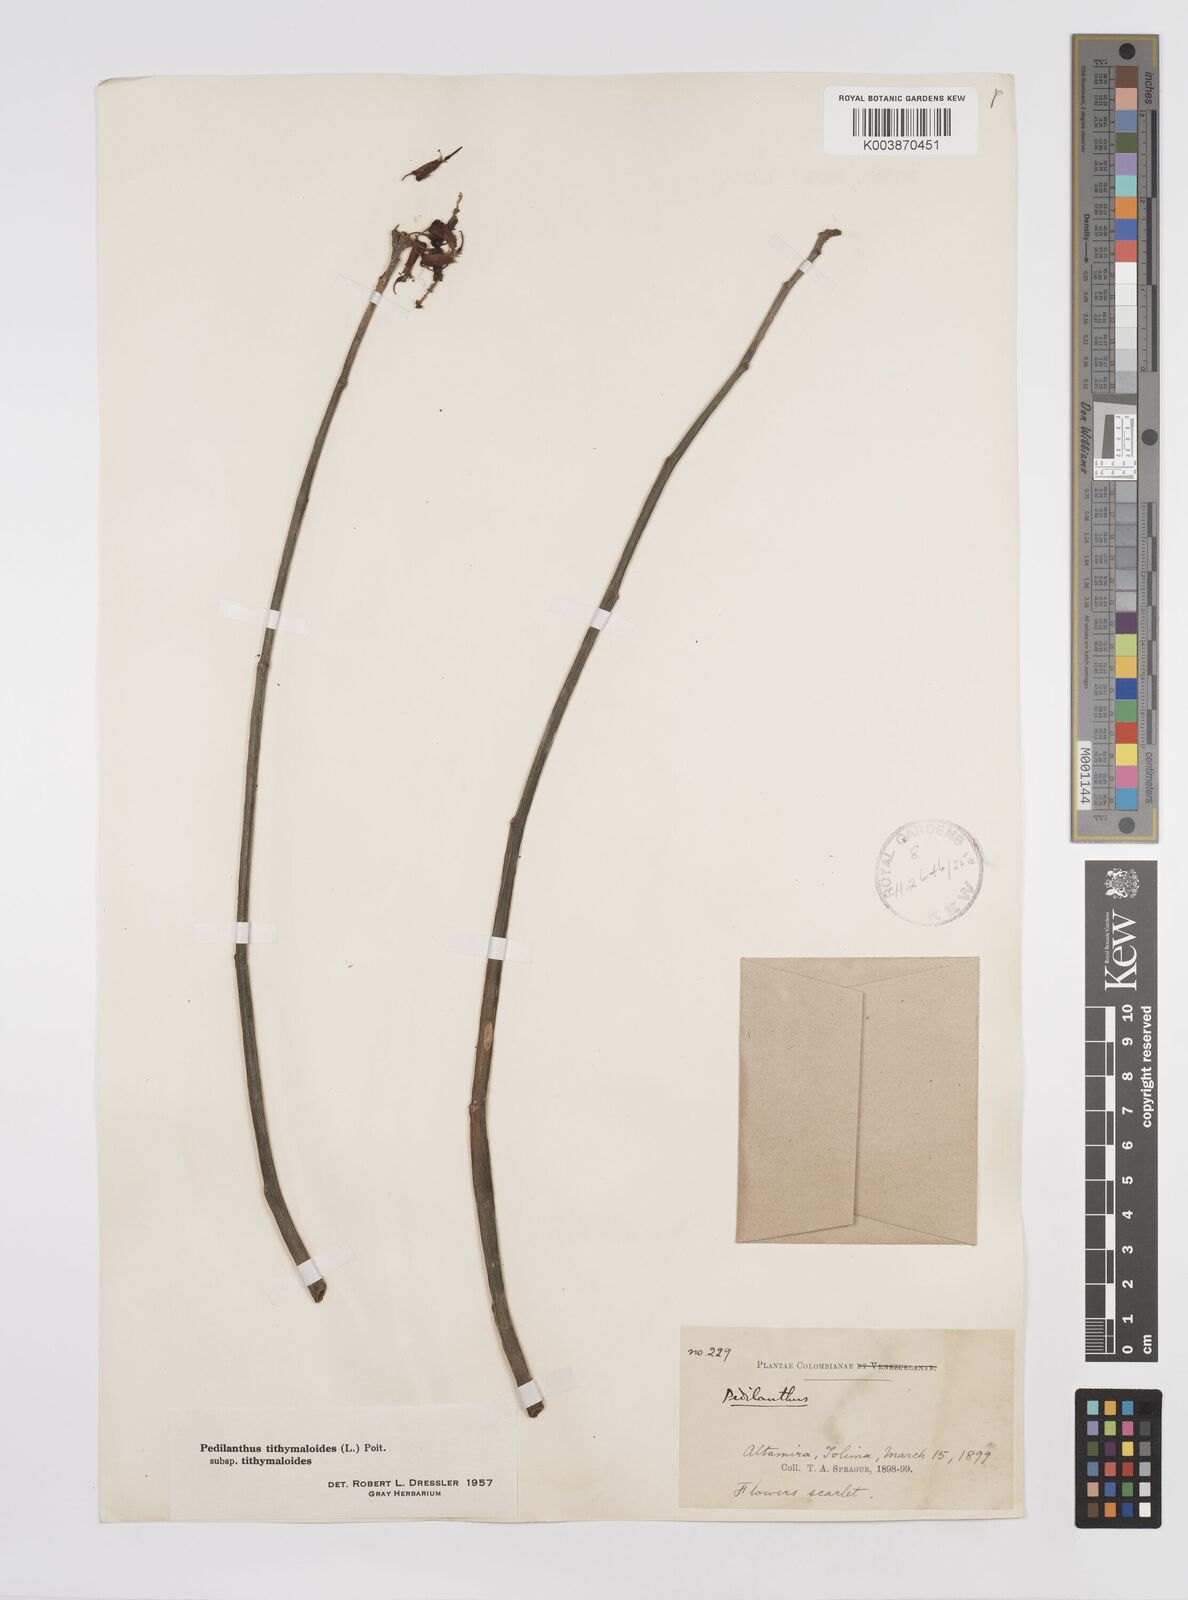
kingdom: Plantae
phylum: Tracheophyta
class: Magnoliopsida
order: Malpighiales
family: Euphorbiaceae
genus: Euphorbia
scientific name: Euphorbia tithymaloides
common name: Slipperplant
